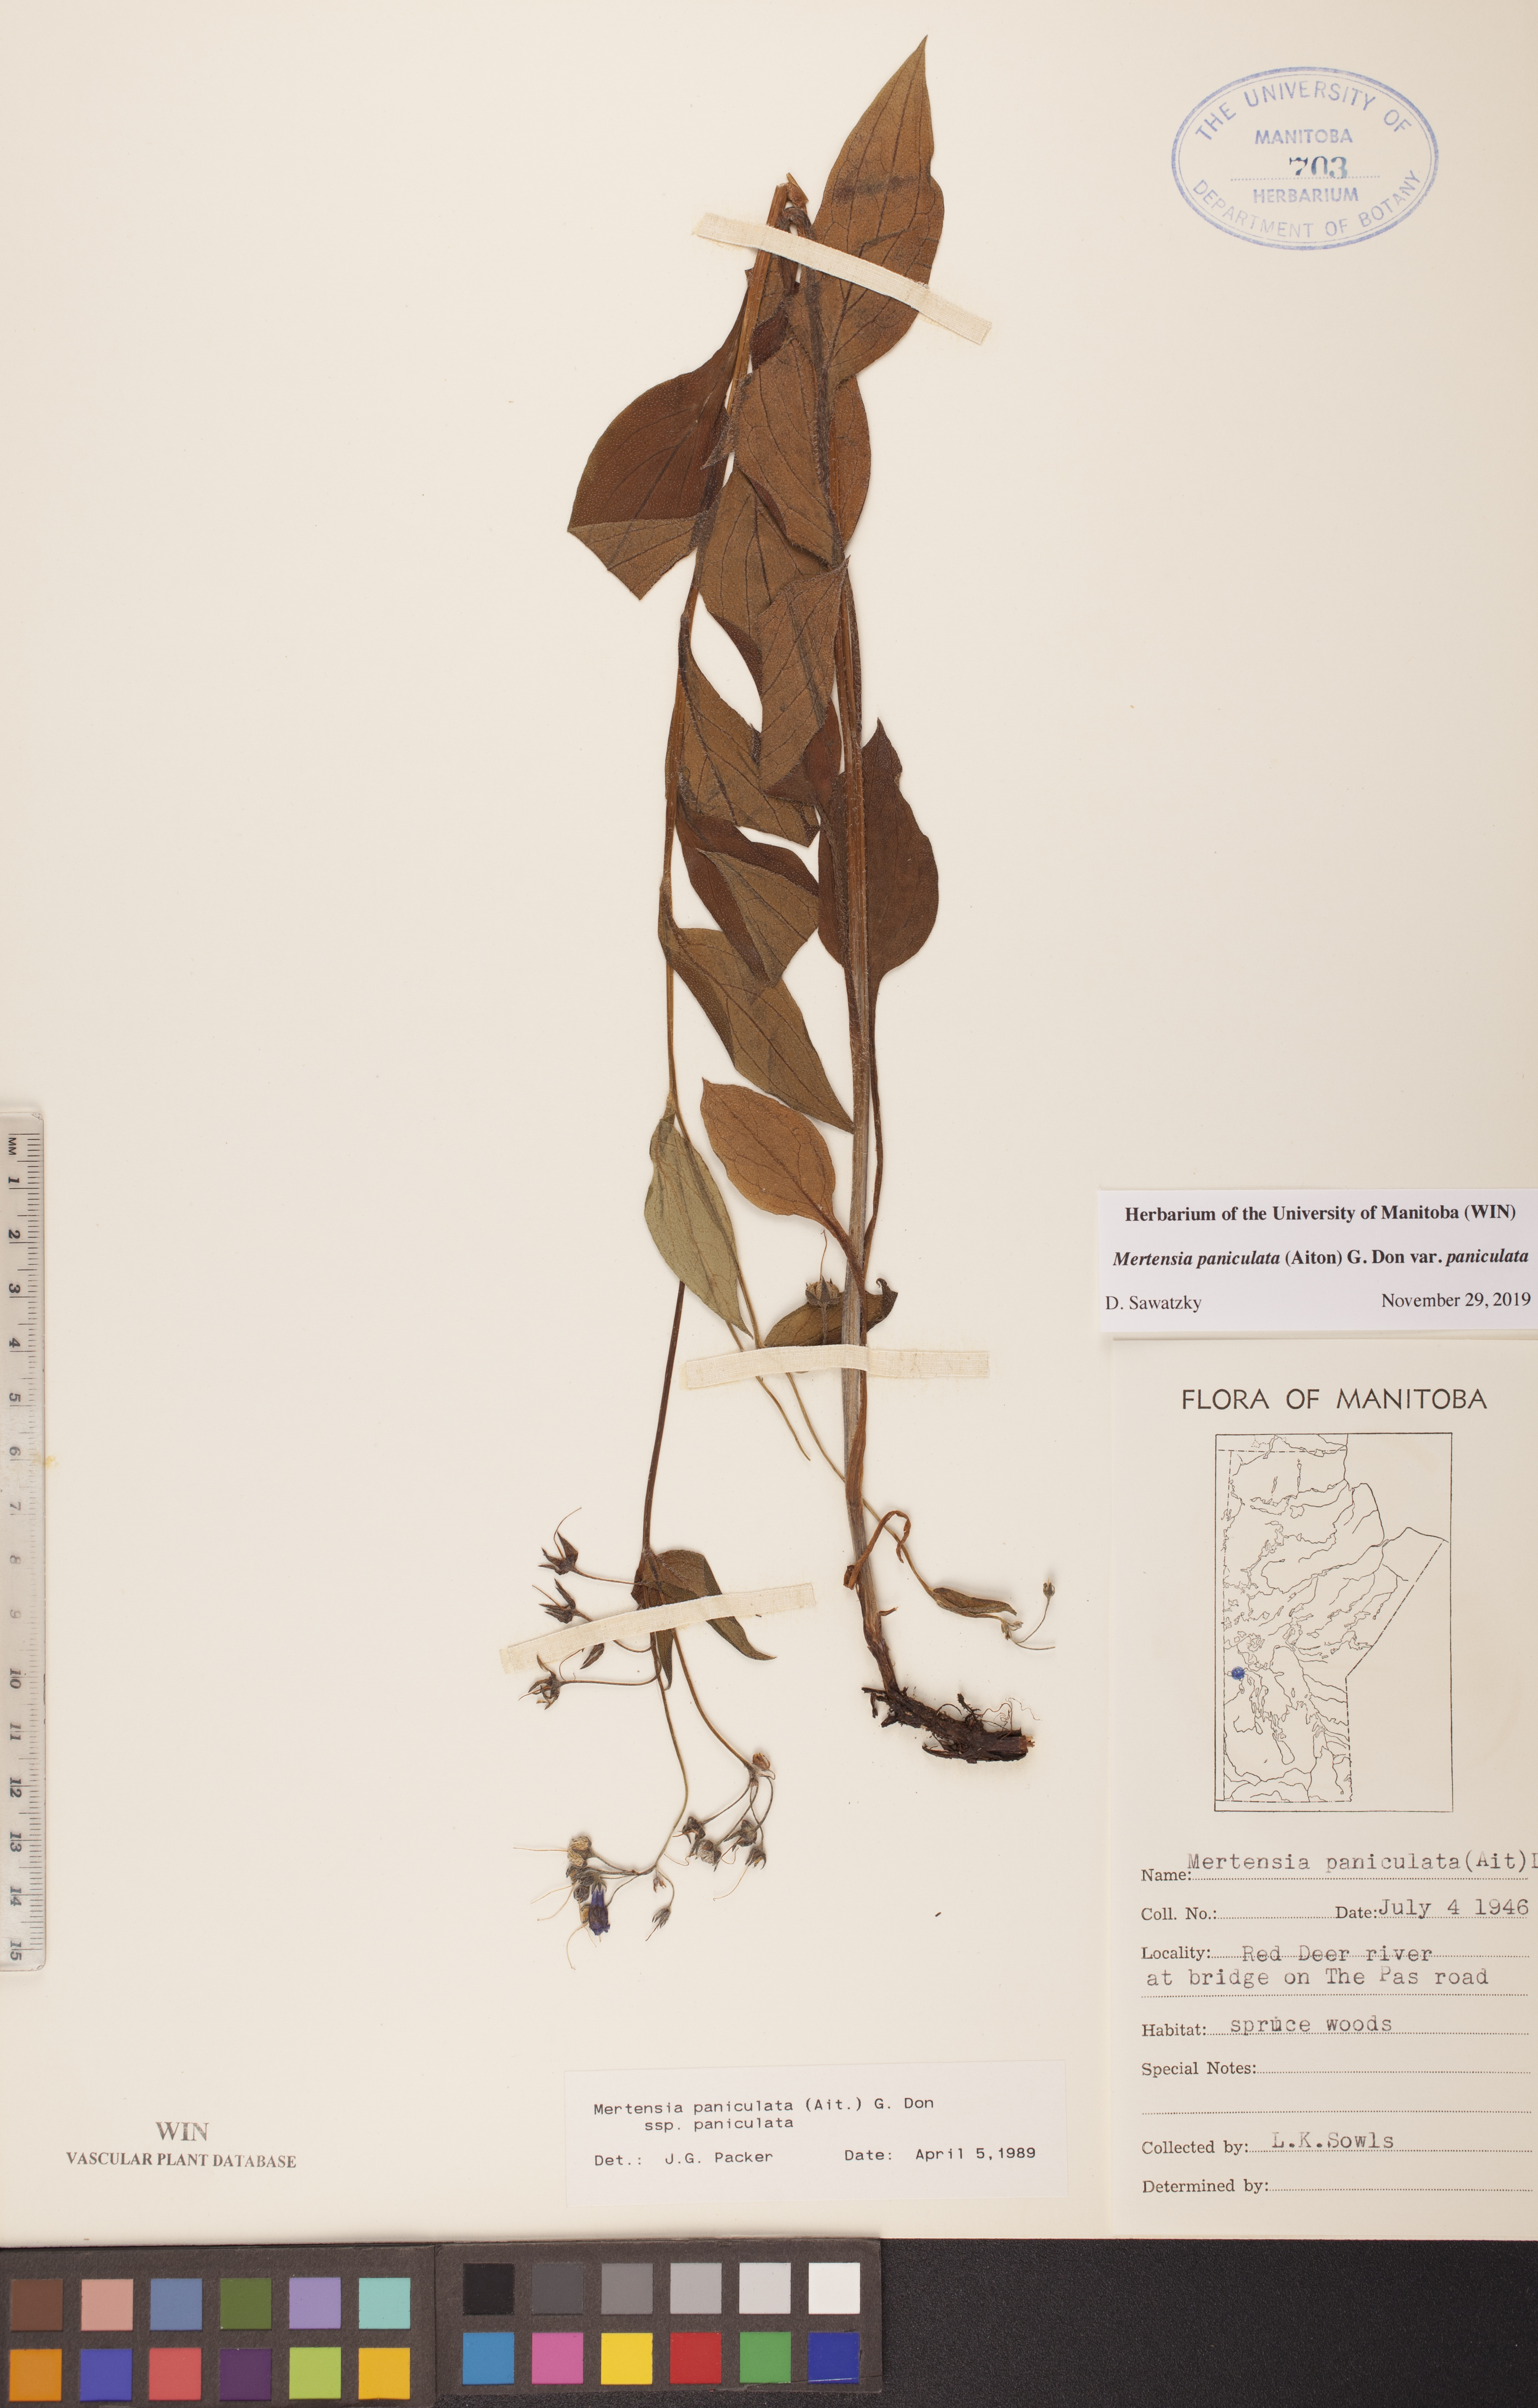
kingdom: Plantae
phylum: Tracheophyta
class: Magnoliopsida
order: Boraginales
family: Boraginaceae
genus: Mertensia
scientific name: Mertensia paniculata
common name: Panicled bluebells
